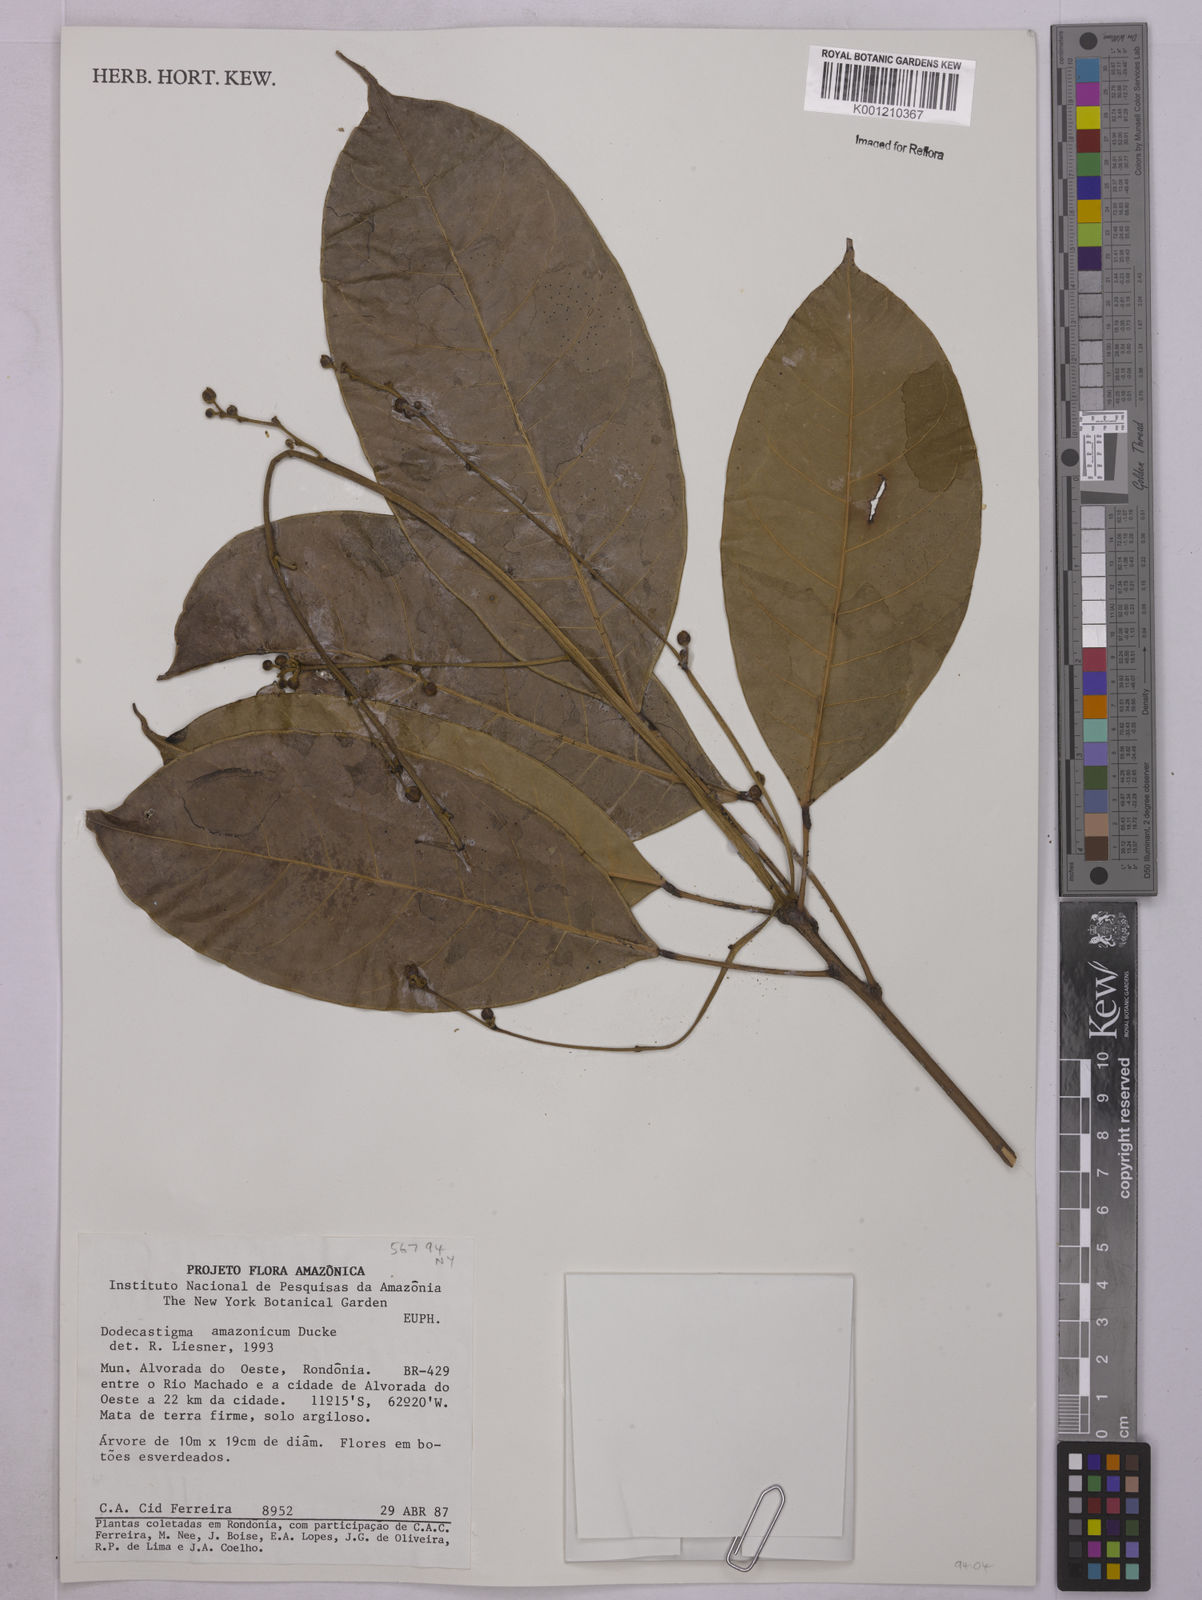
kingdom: Plantae
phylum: Tracheophyta
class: Magnoliopsida
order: Malpighiales
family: Euphorbiaceae
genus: Dodecastigma
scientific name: Dodecastigma amazonicum
